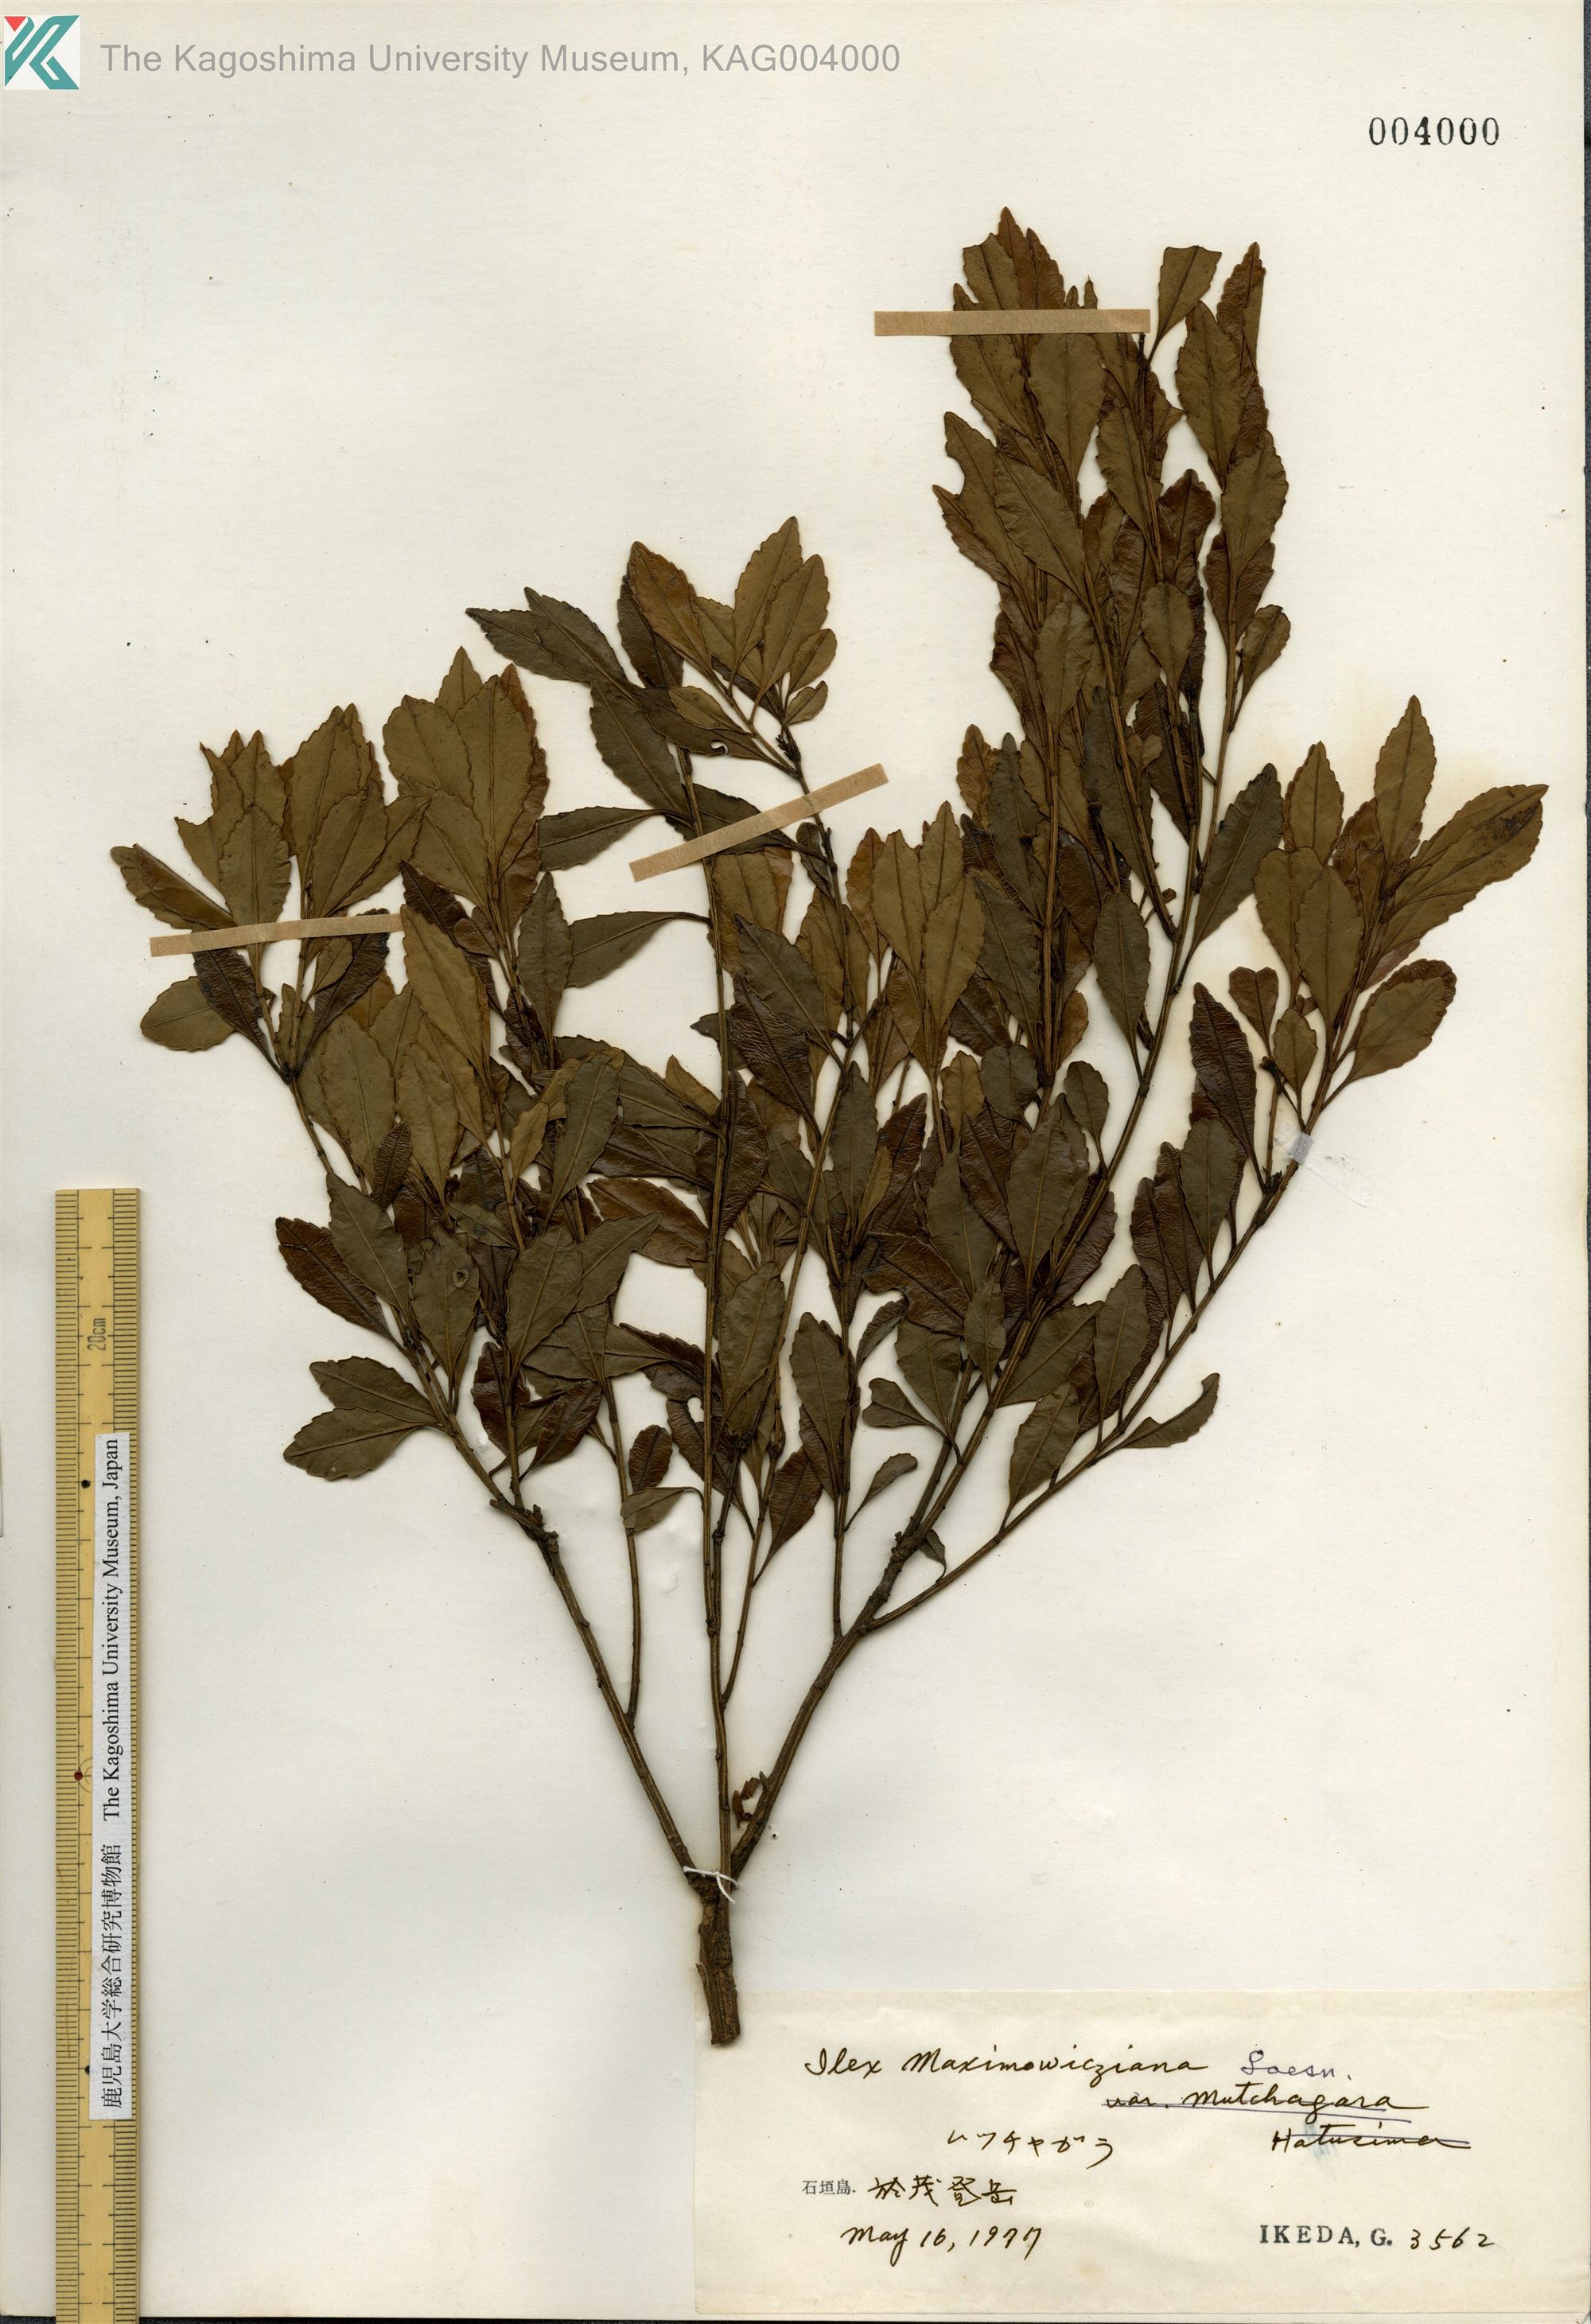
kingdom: Plantae
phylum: Tracheophyta
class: Magnoliopsida
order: Aquifoliales
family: Aquifoliaceae
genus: Ilex
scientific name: Ilex maximowicziana
